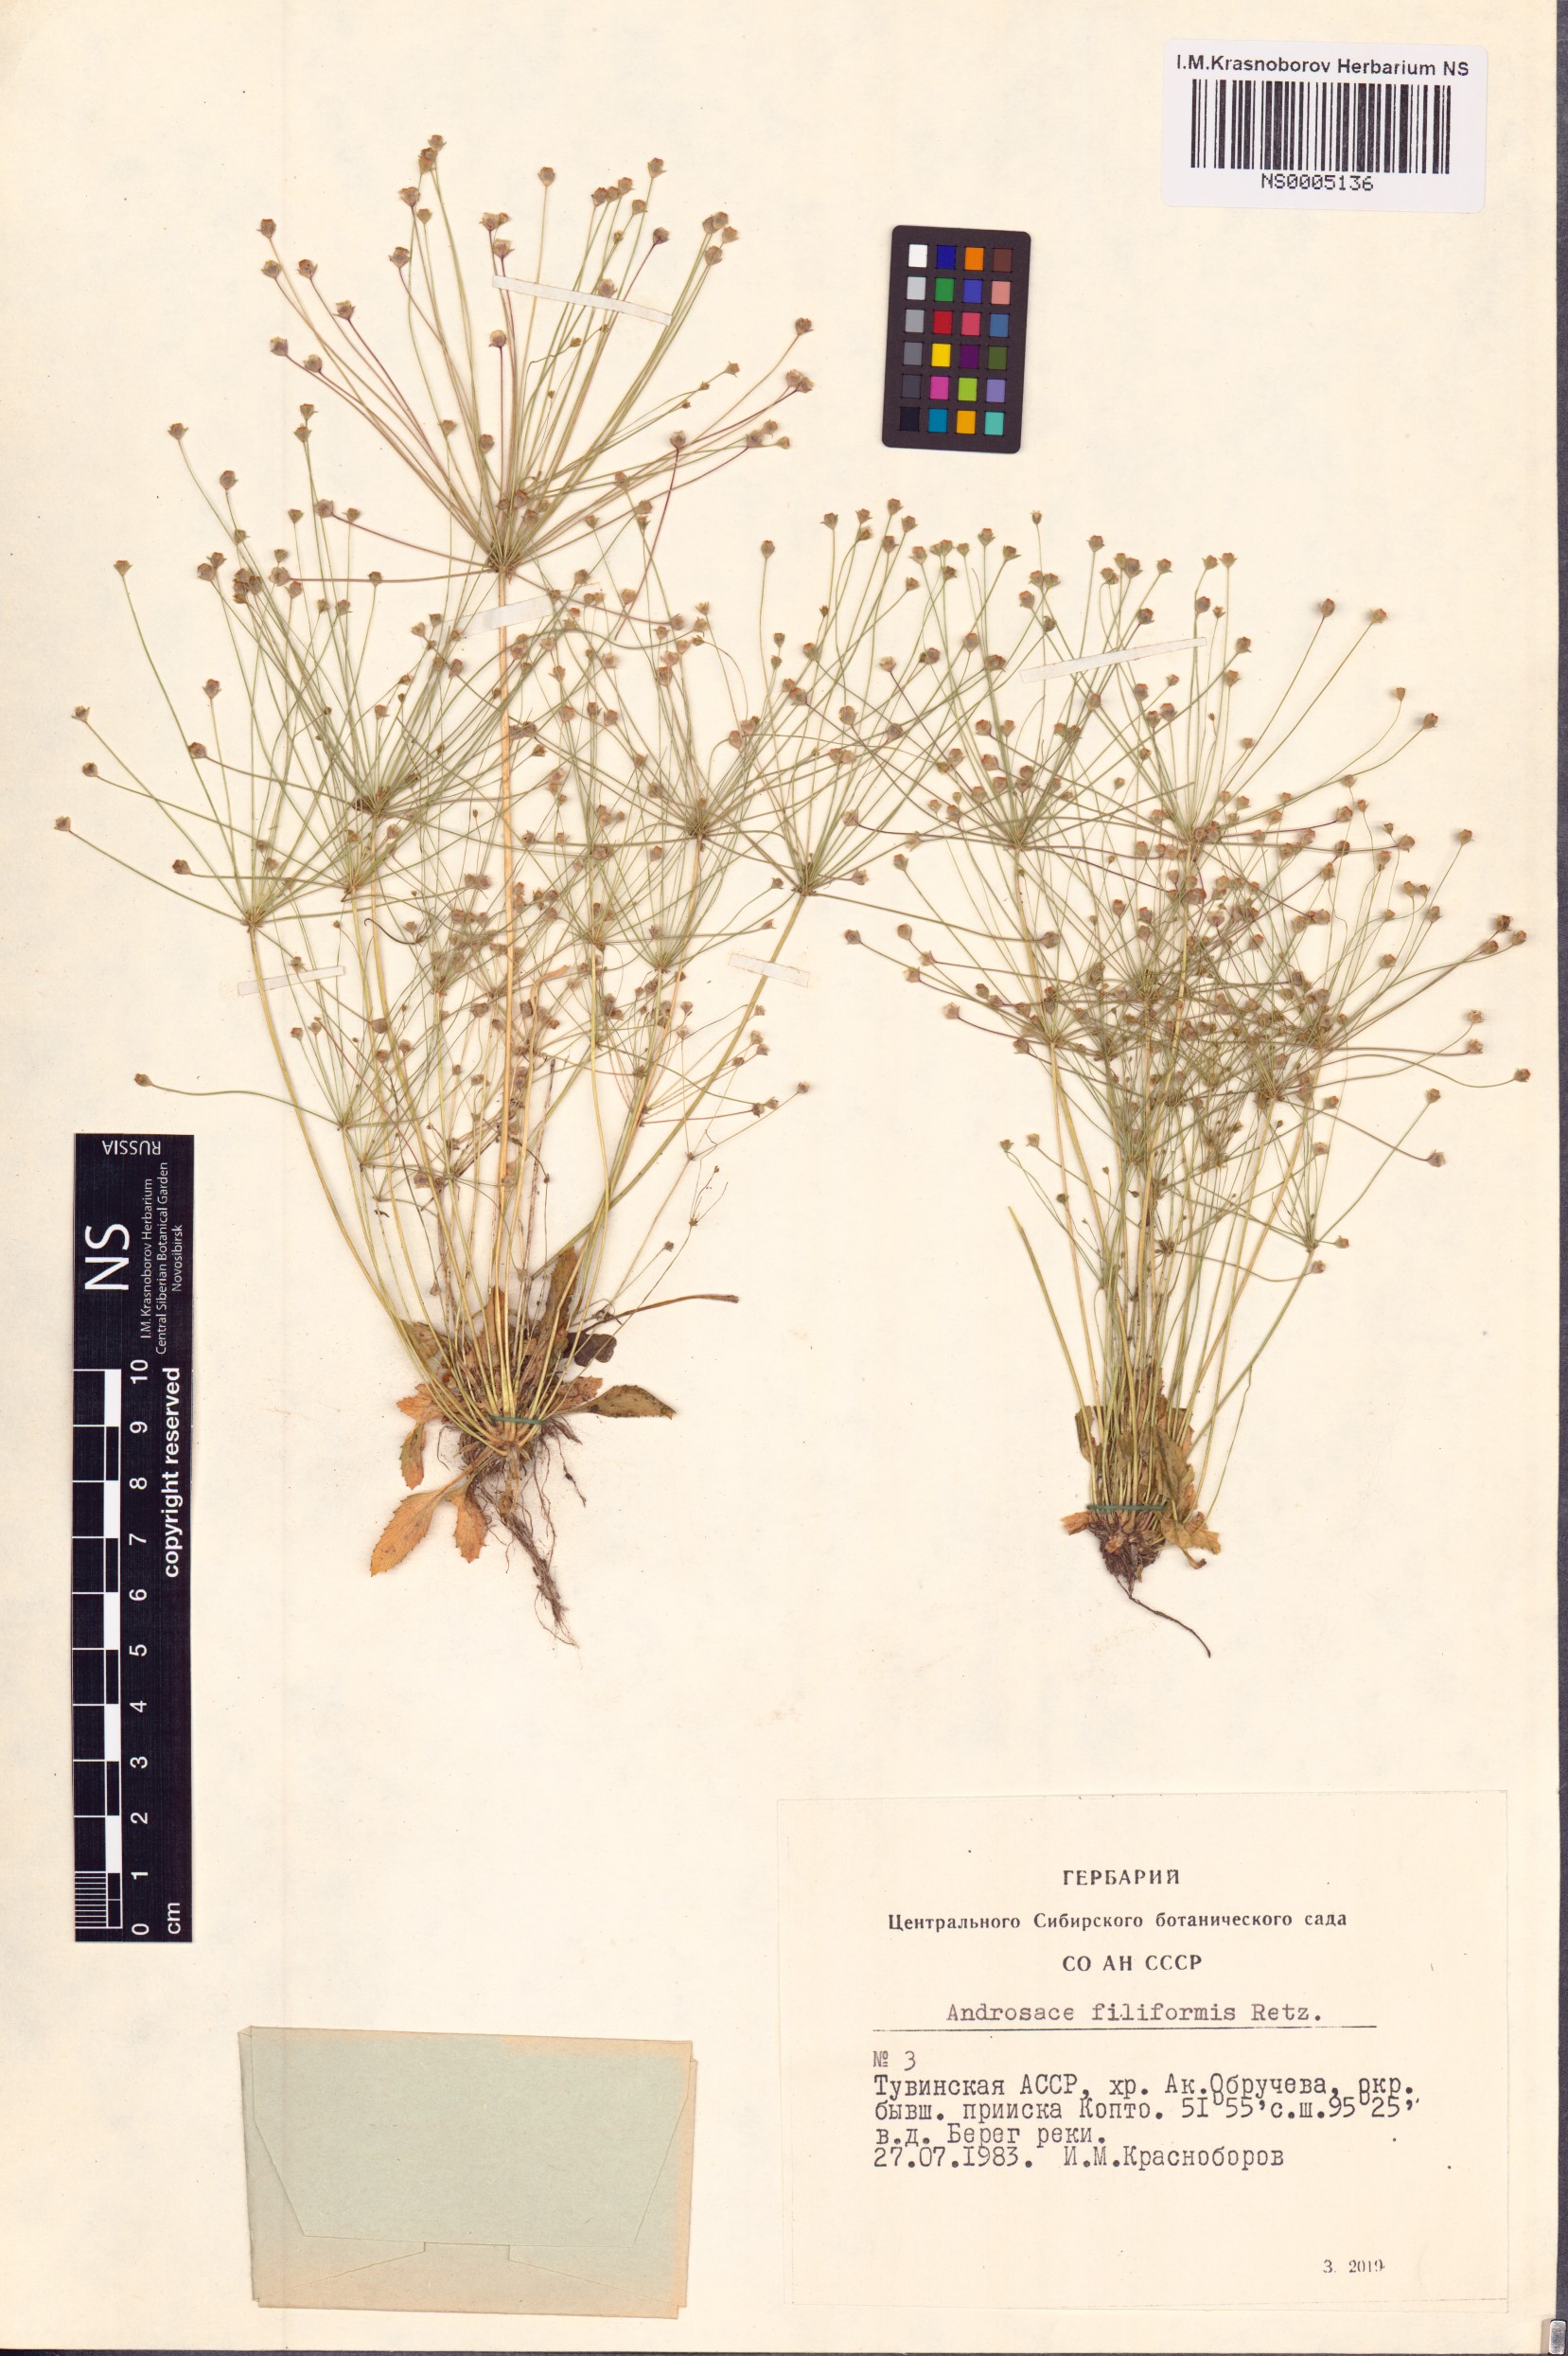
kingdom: Plantae
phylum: Tracheophyta
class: Magnoliopsida
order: Ericales
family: Primulaceae
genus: Androsace
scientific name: Androsace filiformis
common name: Filiform rock jasmine
